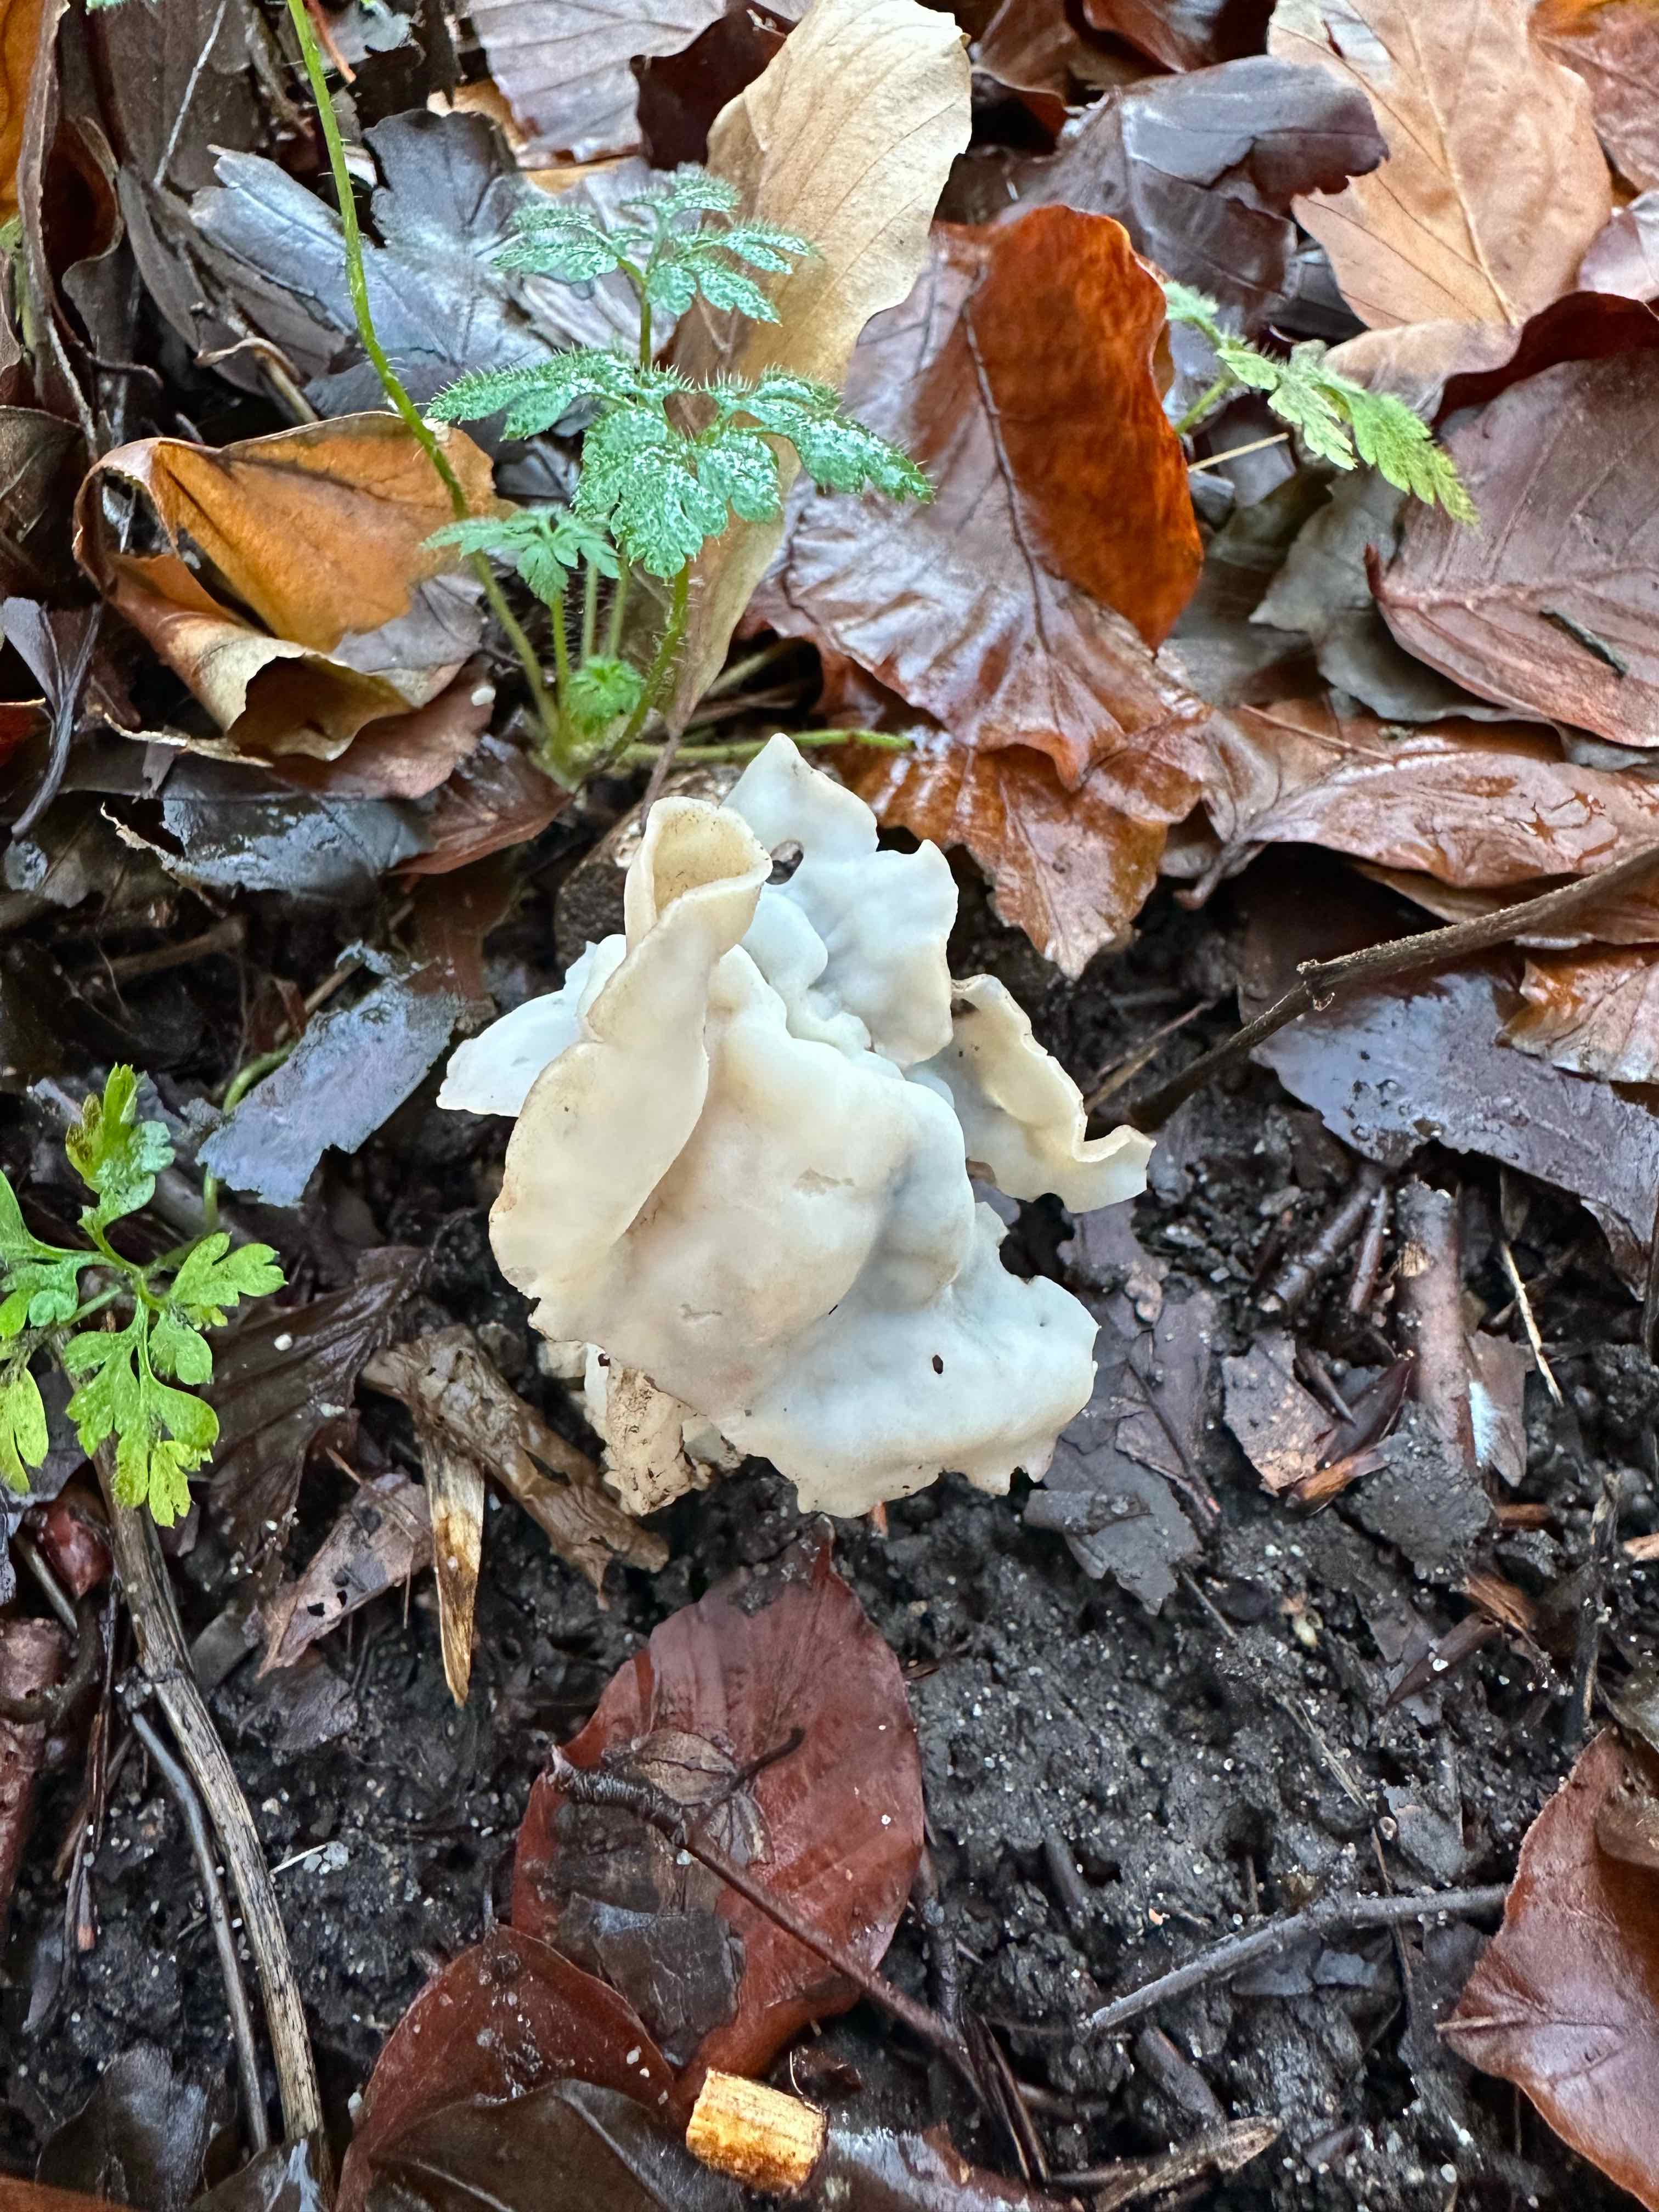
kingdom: Fungi
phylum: Ascomycota
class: Pezizomycetes
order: Pezizales
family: Helvellaceae
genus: Helvella
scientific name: Helvella crispa
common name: kruset foldhat
